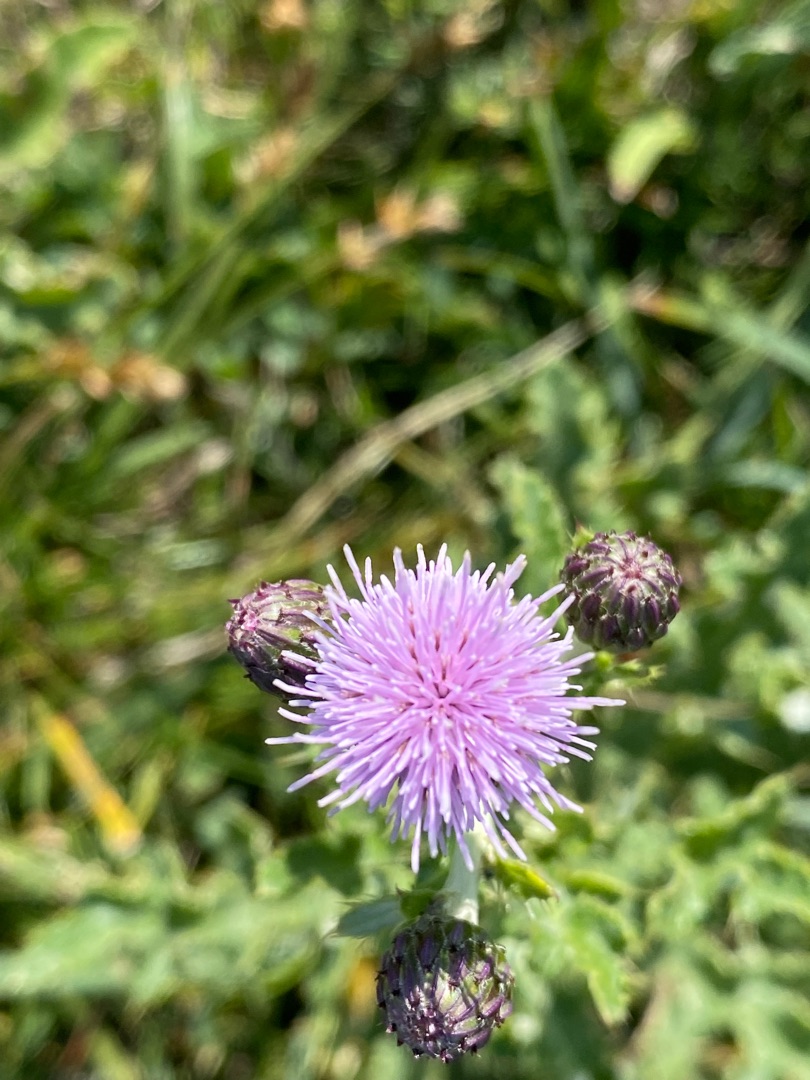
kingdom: Plantae
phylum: Tracheophyta
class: Magnoliopsida
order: Asterales
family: Asteraceae
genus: Cirsium
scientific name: Cirsium arvense
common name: Ager-tidsel
